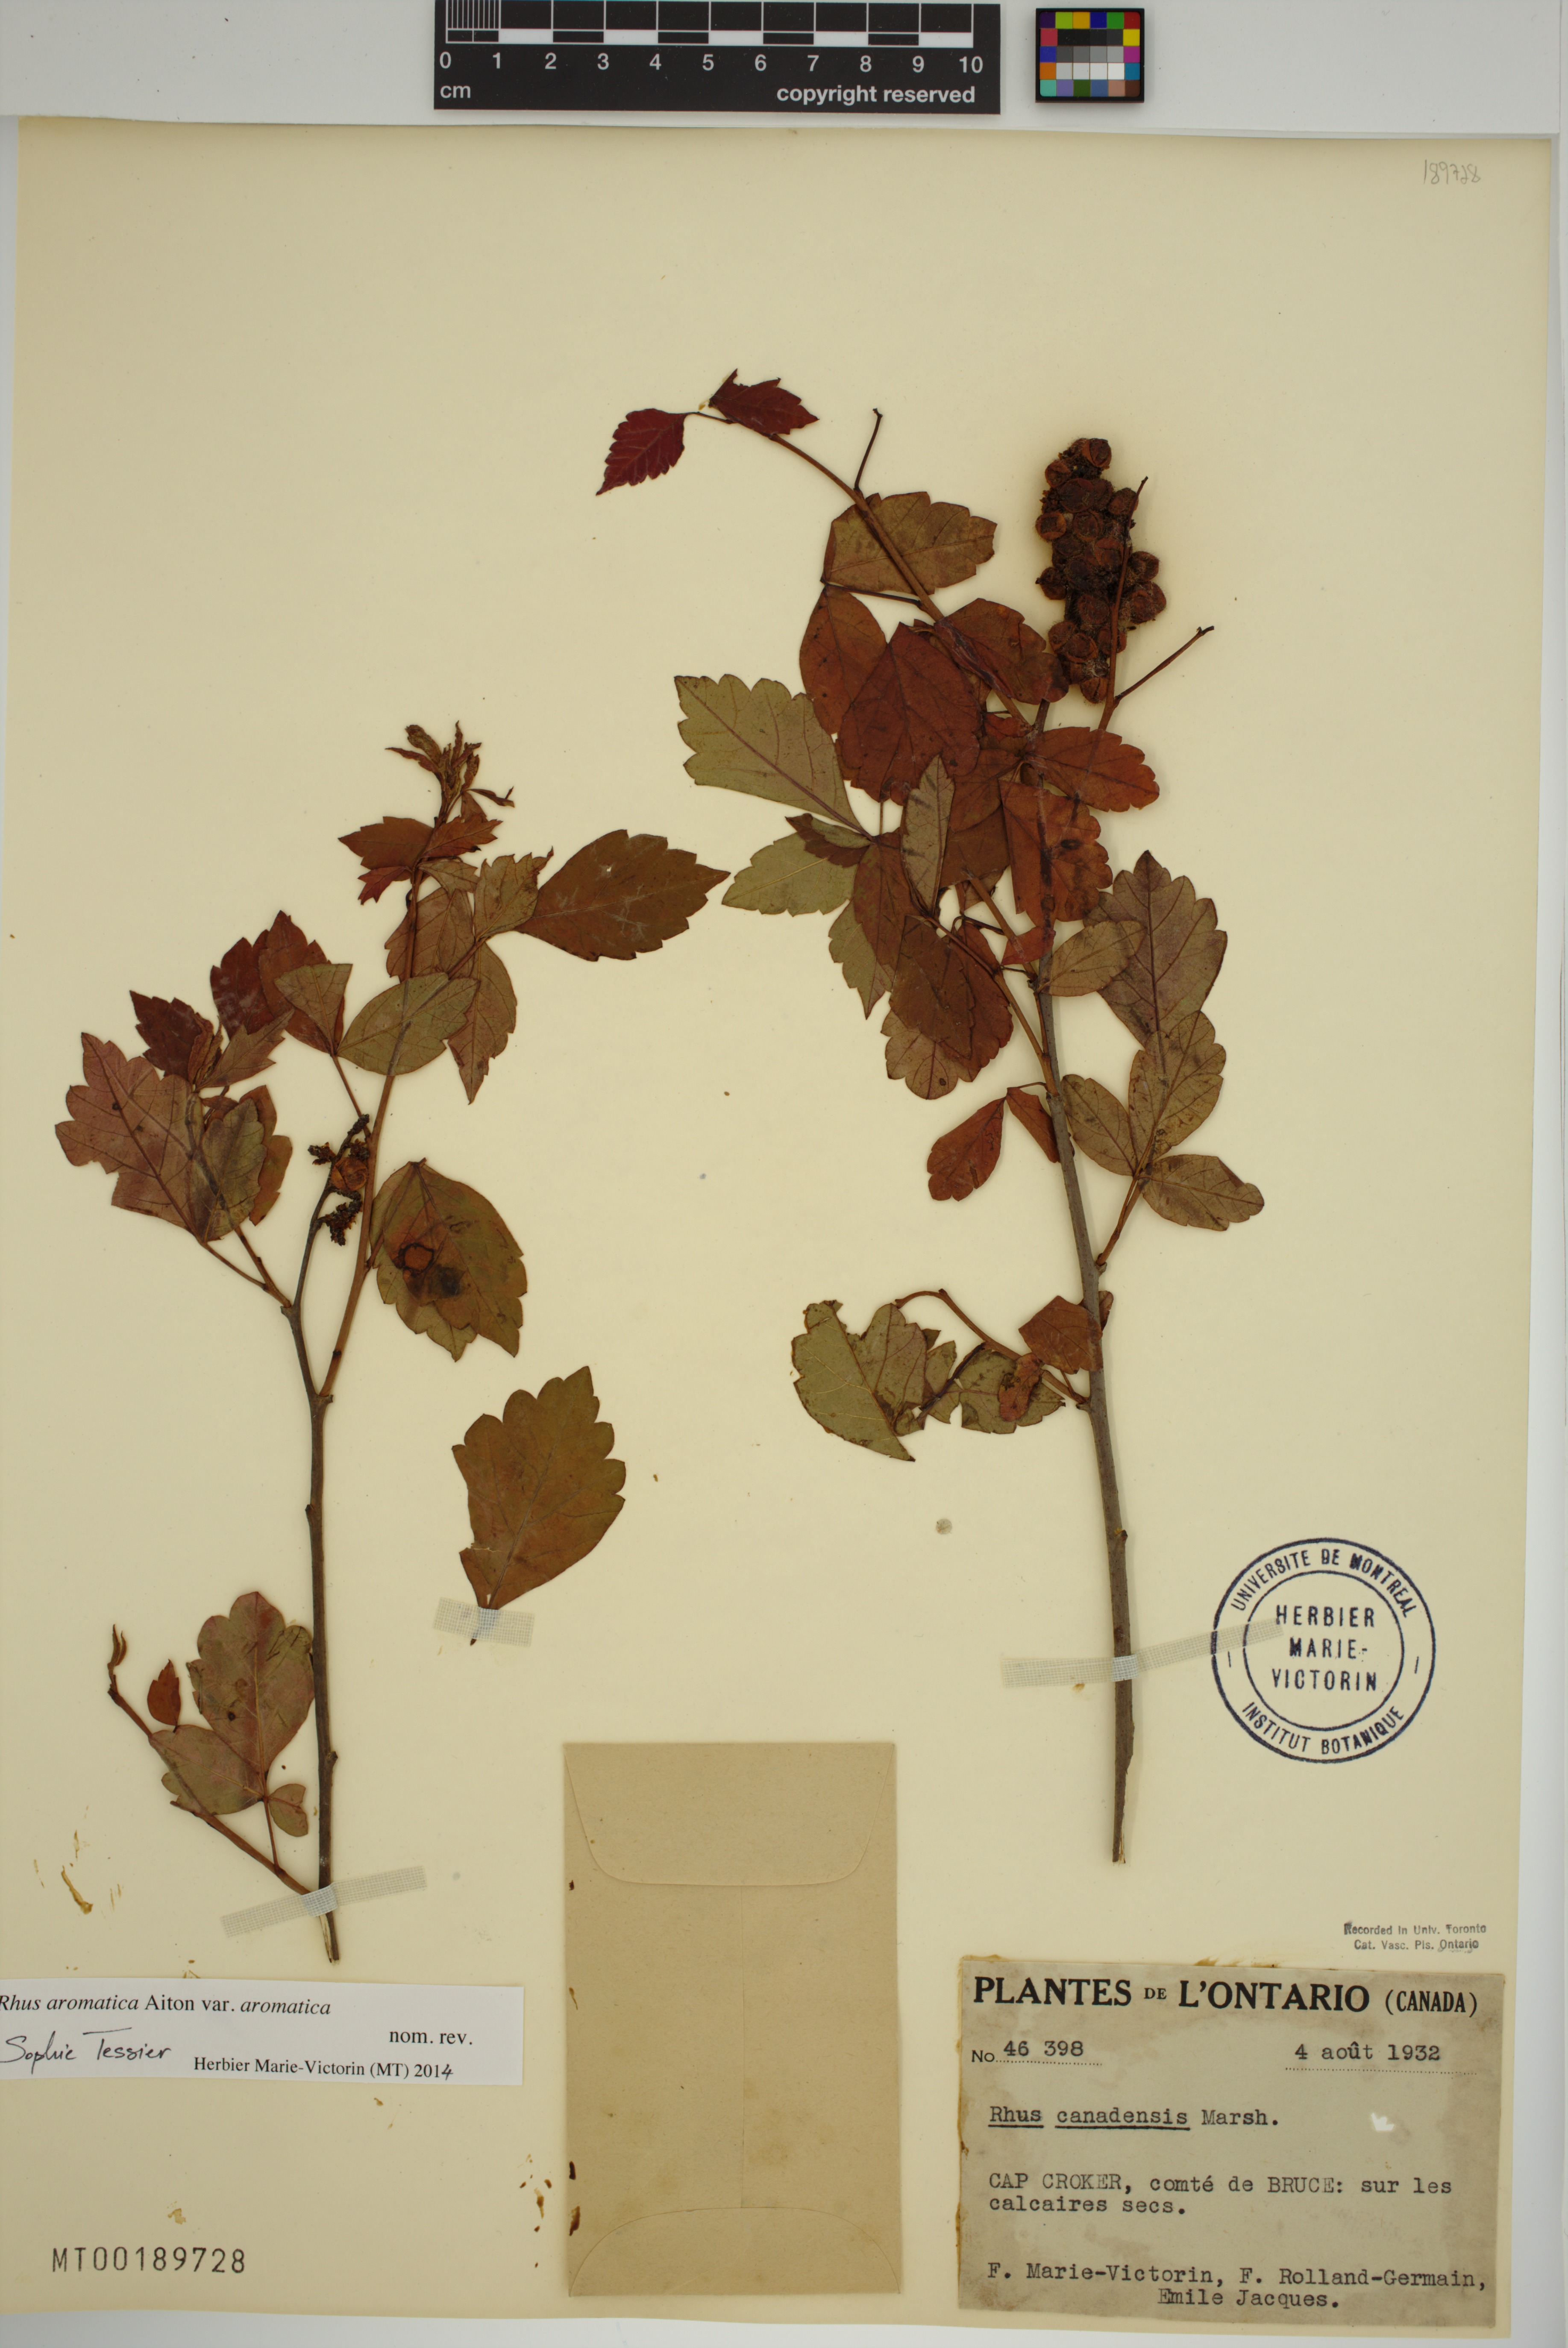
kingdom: Plantae
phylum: Tracheophyta
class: Magnoliopsida
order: Sapindales
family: Anacardiaceae
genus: Rhus
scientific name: Rhus aromatica
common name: Aromatic sumac
